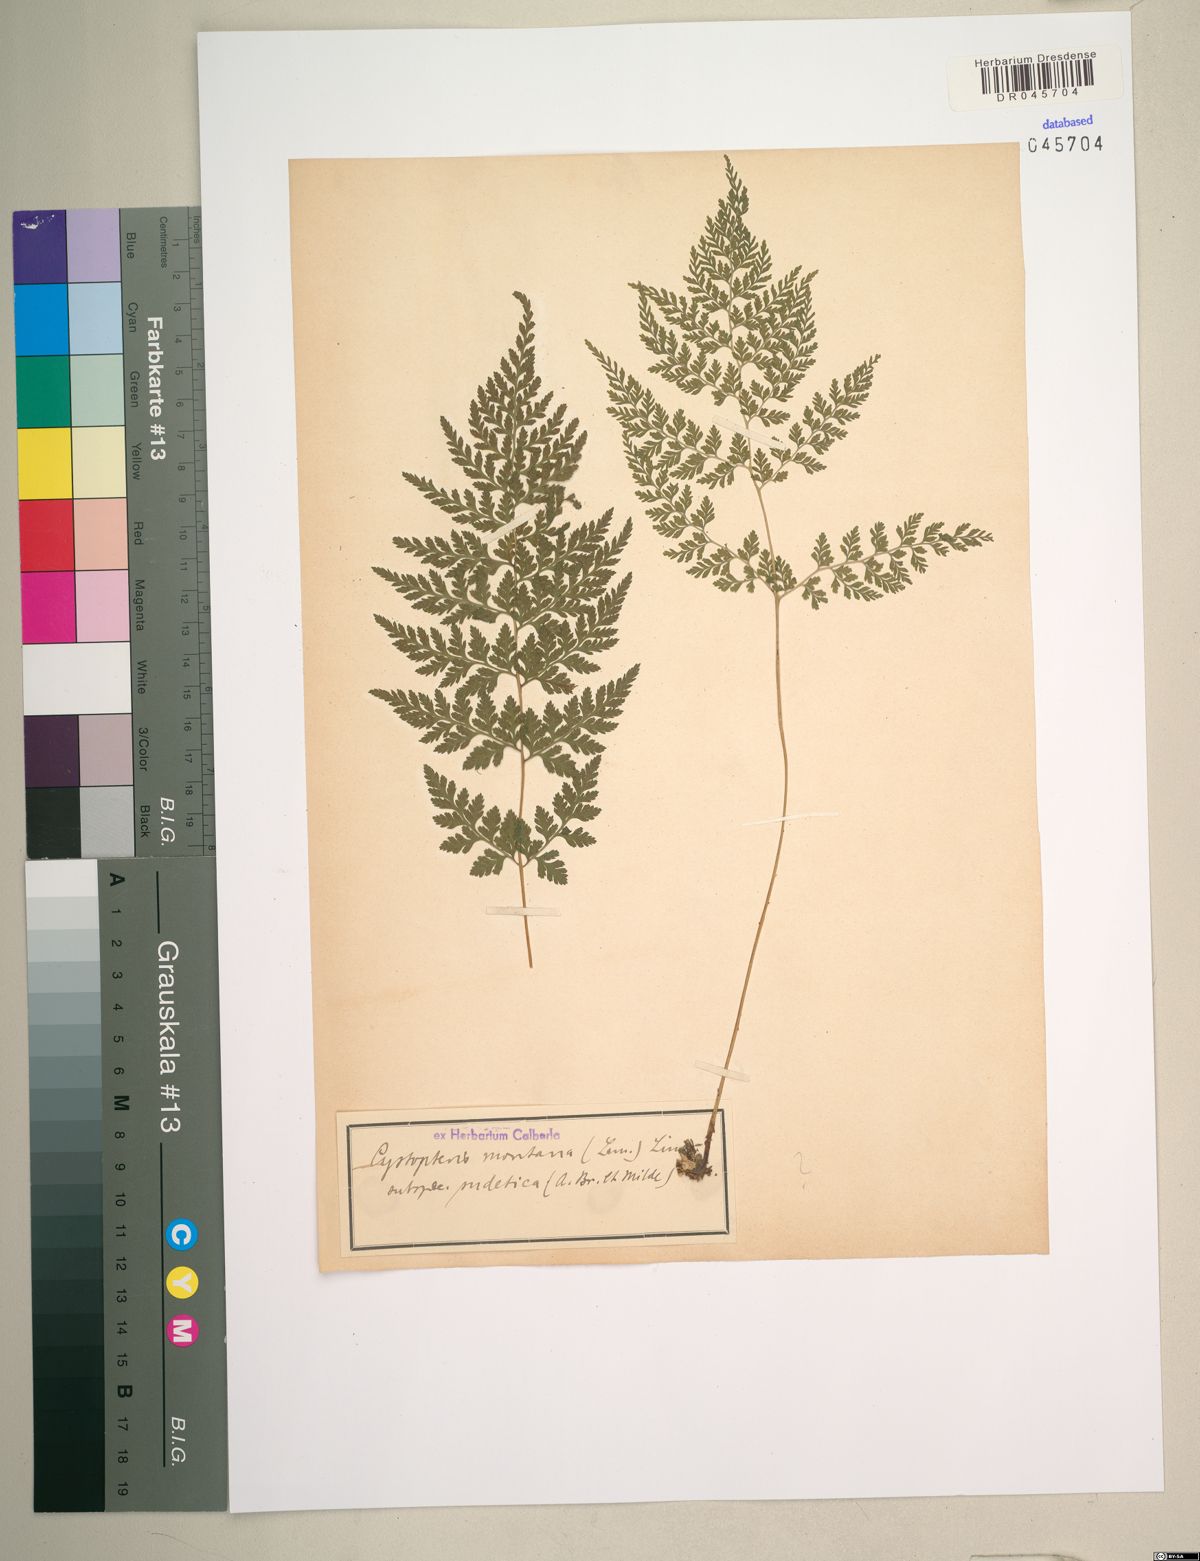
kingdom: Plantae
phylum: Tracheophyta
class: Polypodiopsida
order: Polypodiales
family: Cystopteridaceae
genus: Cystopteris
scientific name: Cystopteris montana
